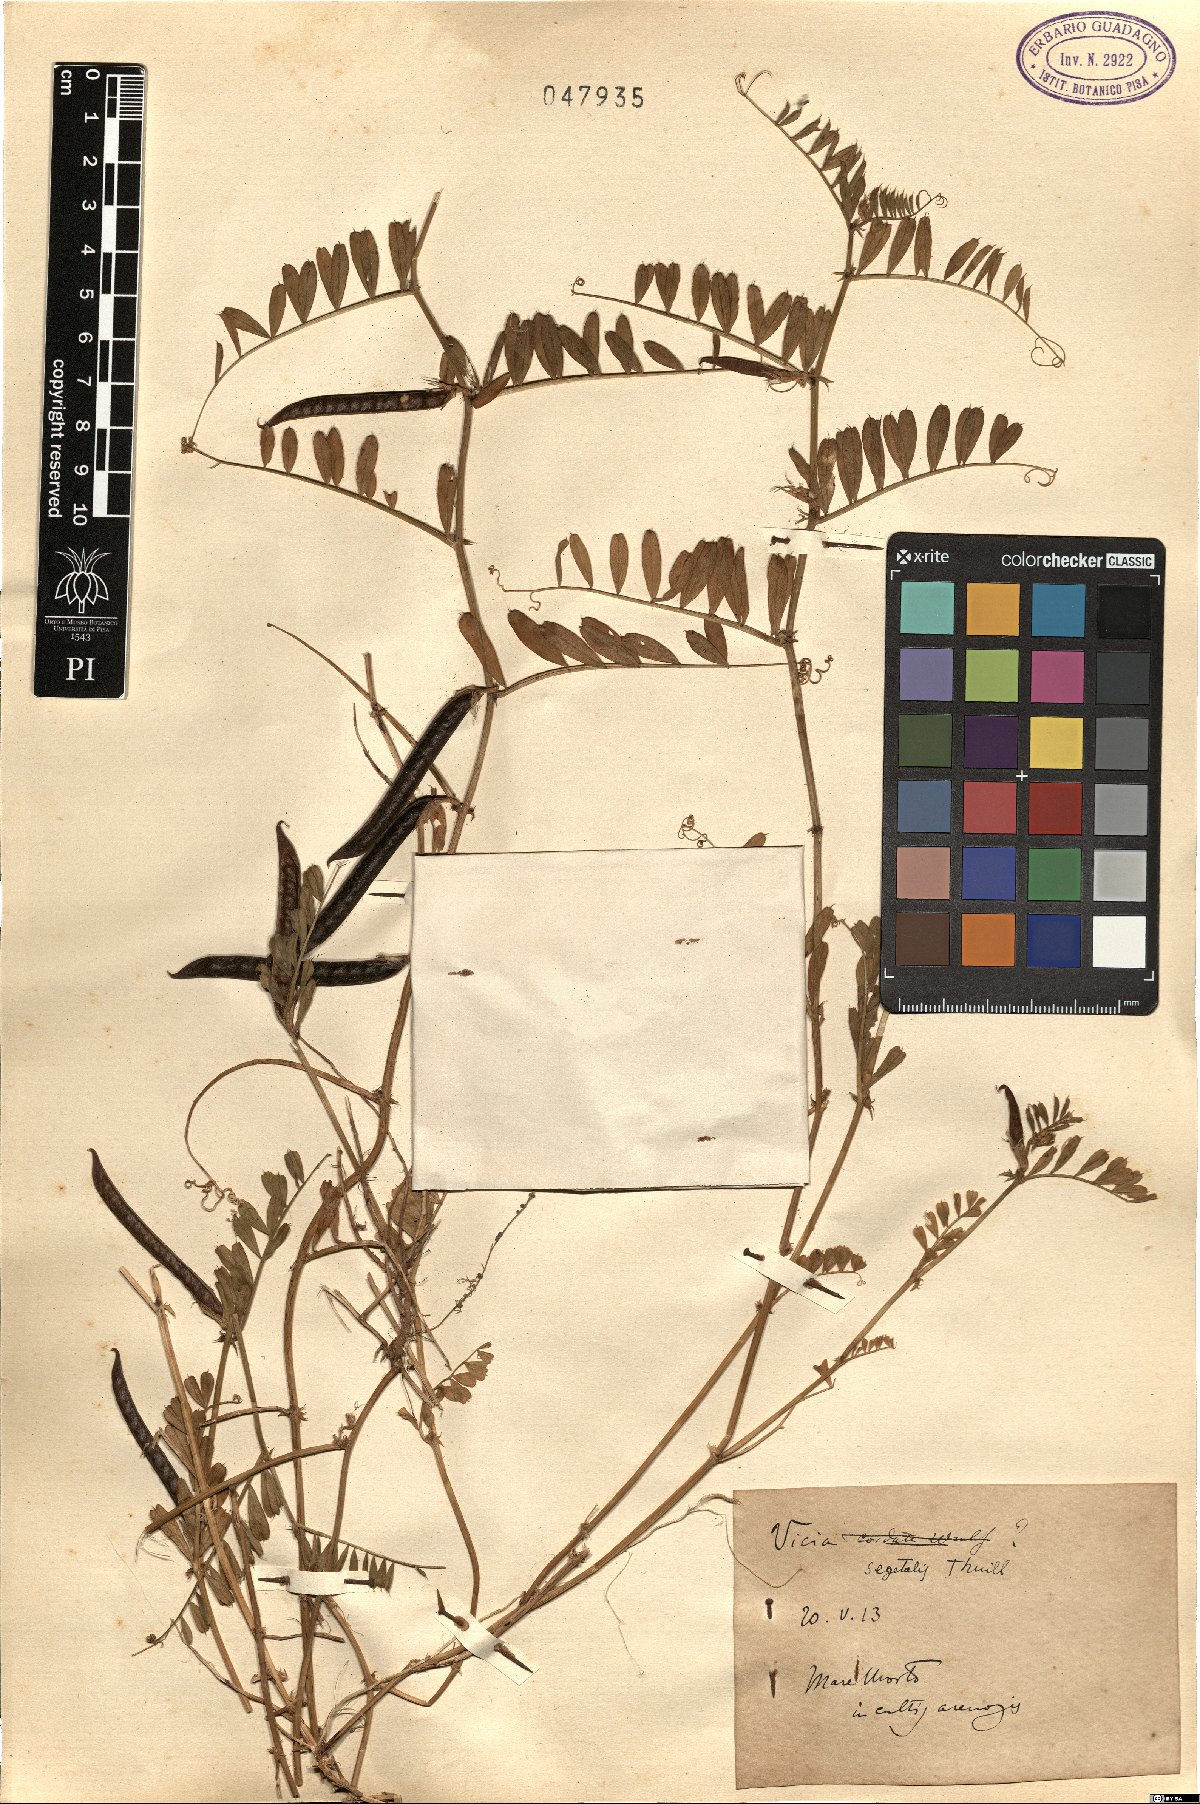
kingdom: Plantae
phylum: Tracheophyta
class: Magnoliopsida
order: Fabales
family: Fabaceae
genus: Vicia
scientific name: Vicia sativa
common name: Garden vetch
